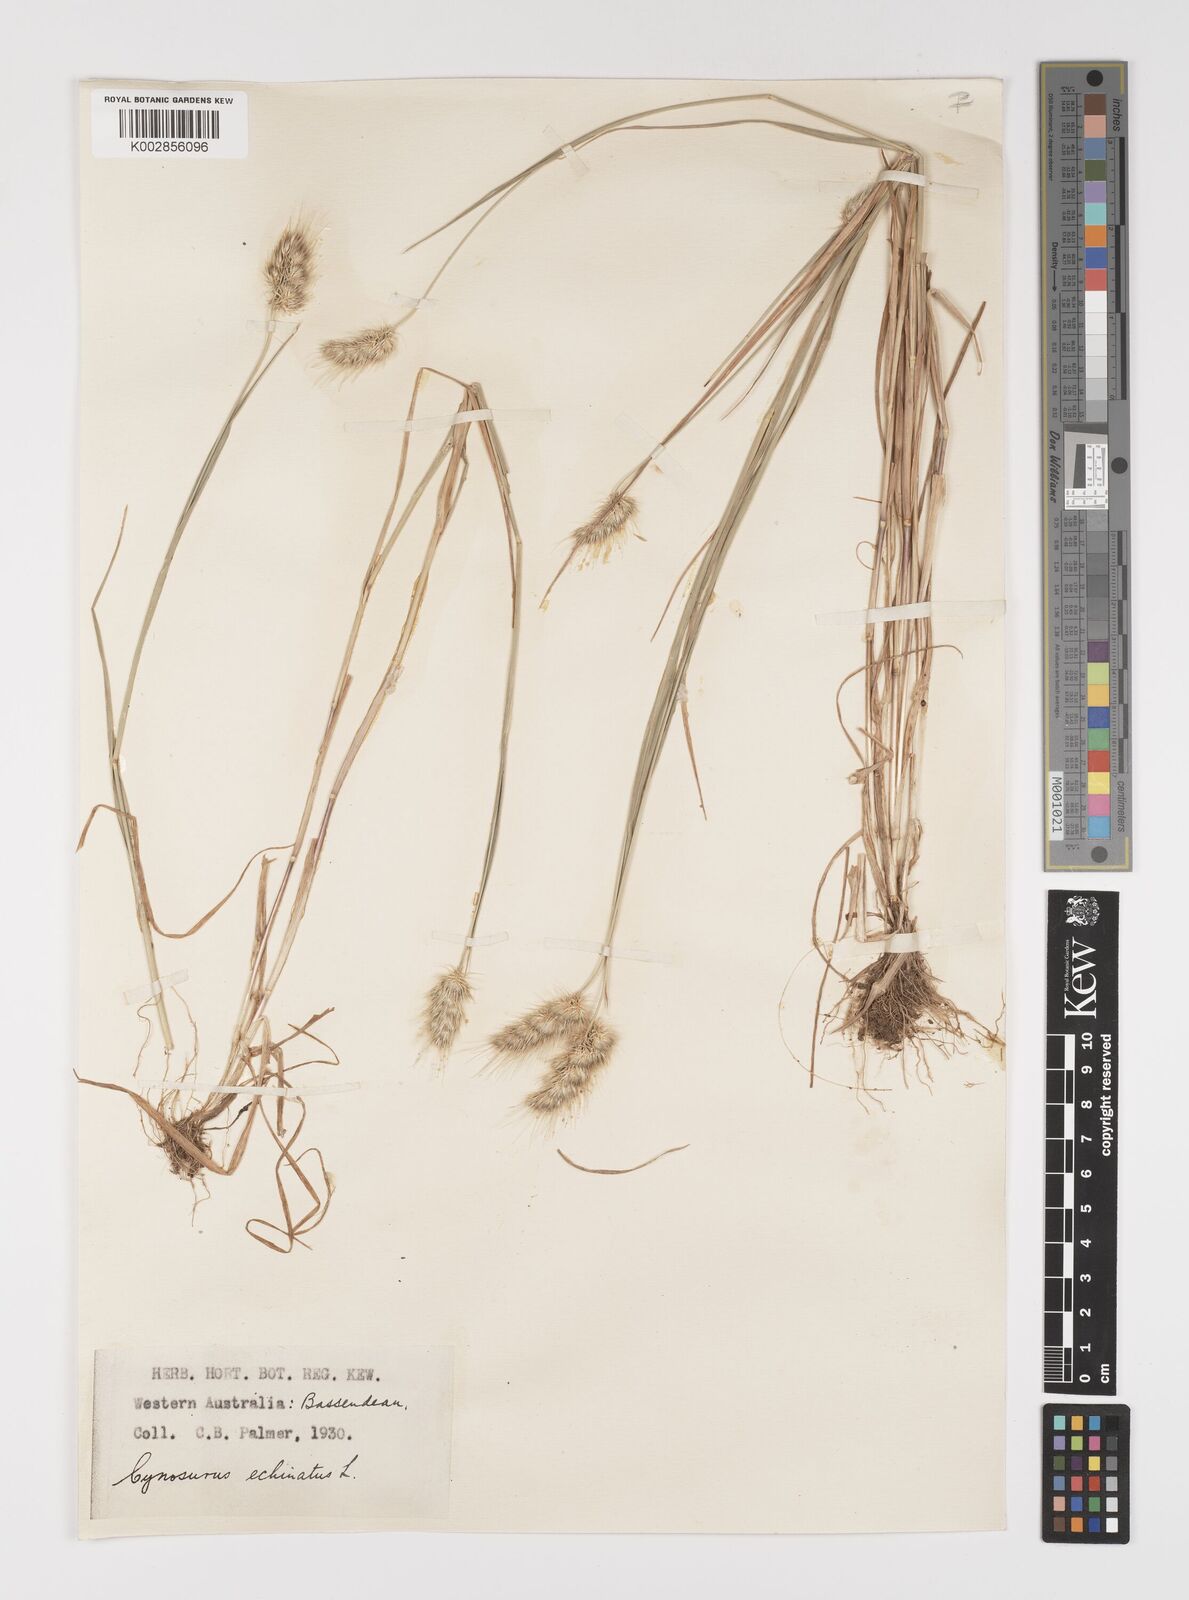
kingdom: Plantae
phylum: Tracheophyta
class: Liliopsida
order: Poales
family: Poaceae
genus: Cynosurus
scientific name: Cynosurus echinatus
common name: Rough dog's-tail
